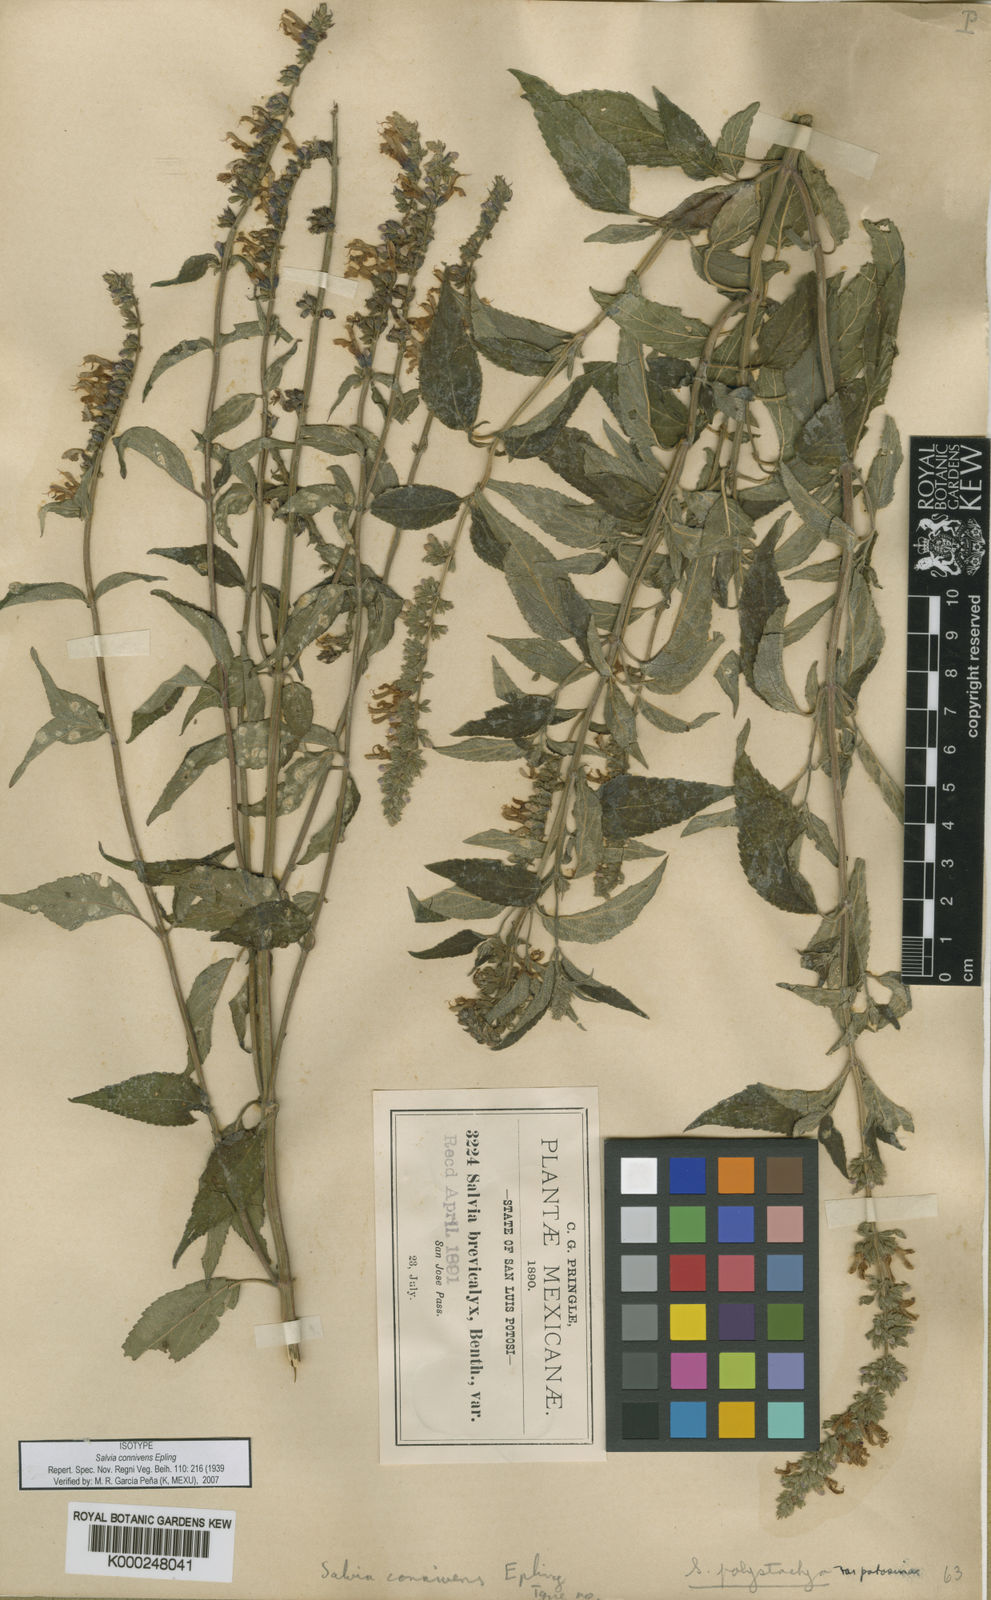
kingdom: Plantae
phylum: Tracheophyta
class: Magnoliopsida
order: Lamiales
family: Lamiaceae
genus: Salvia
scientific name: Salvia connivens
